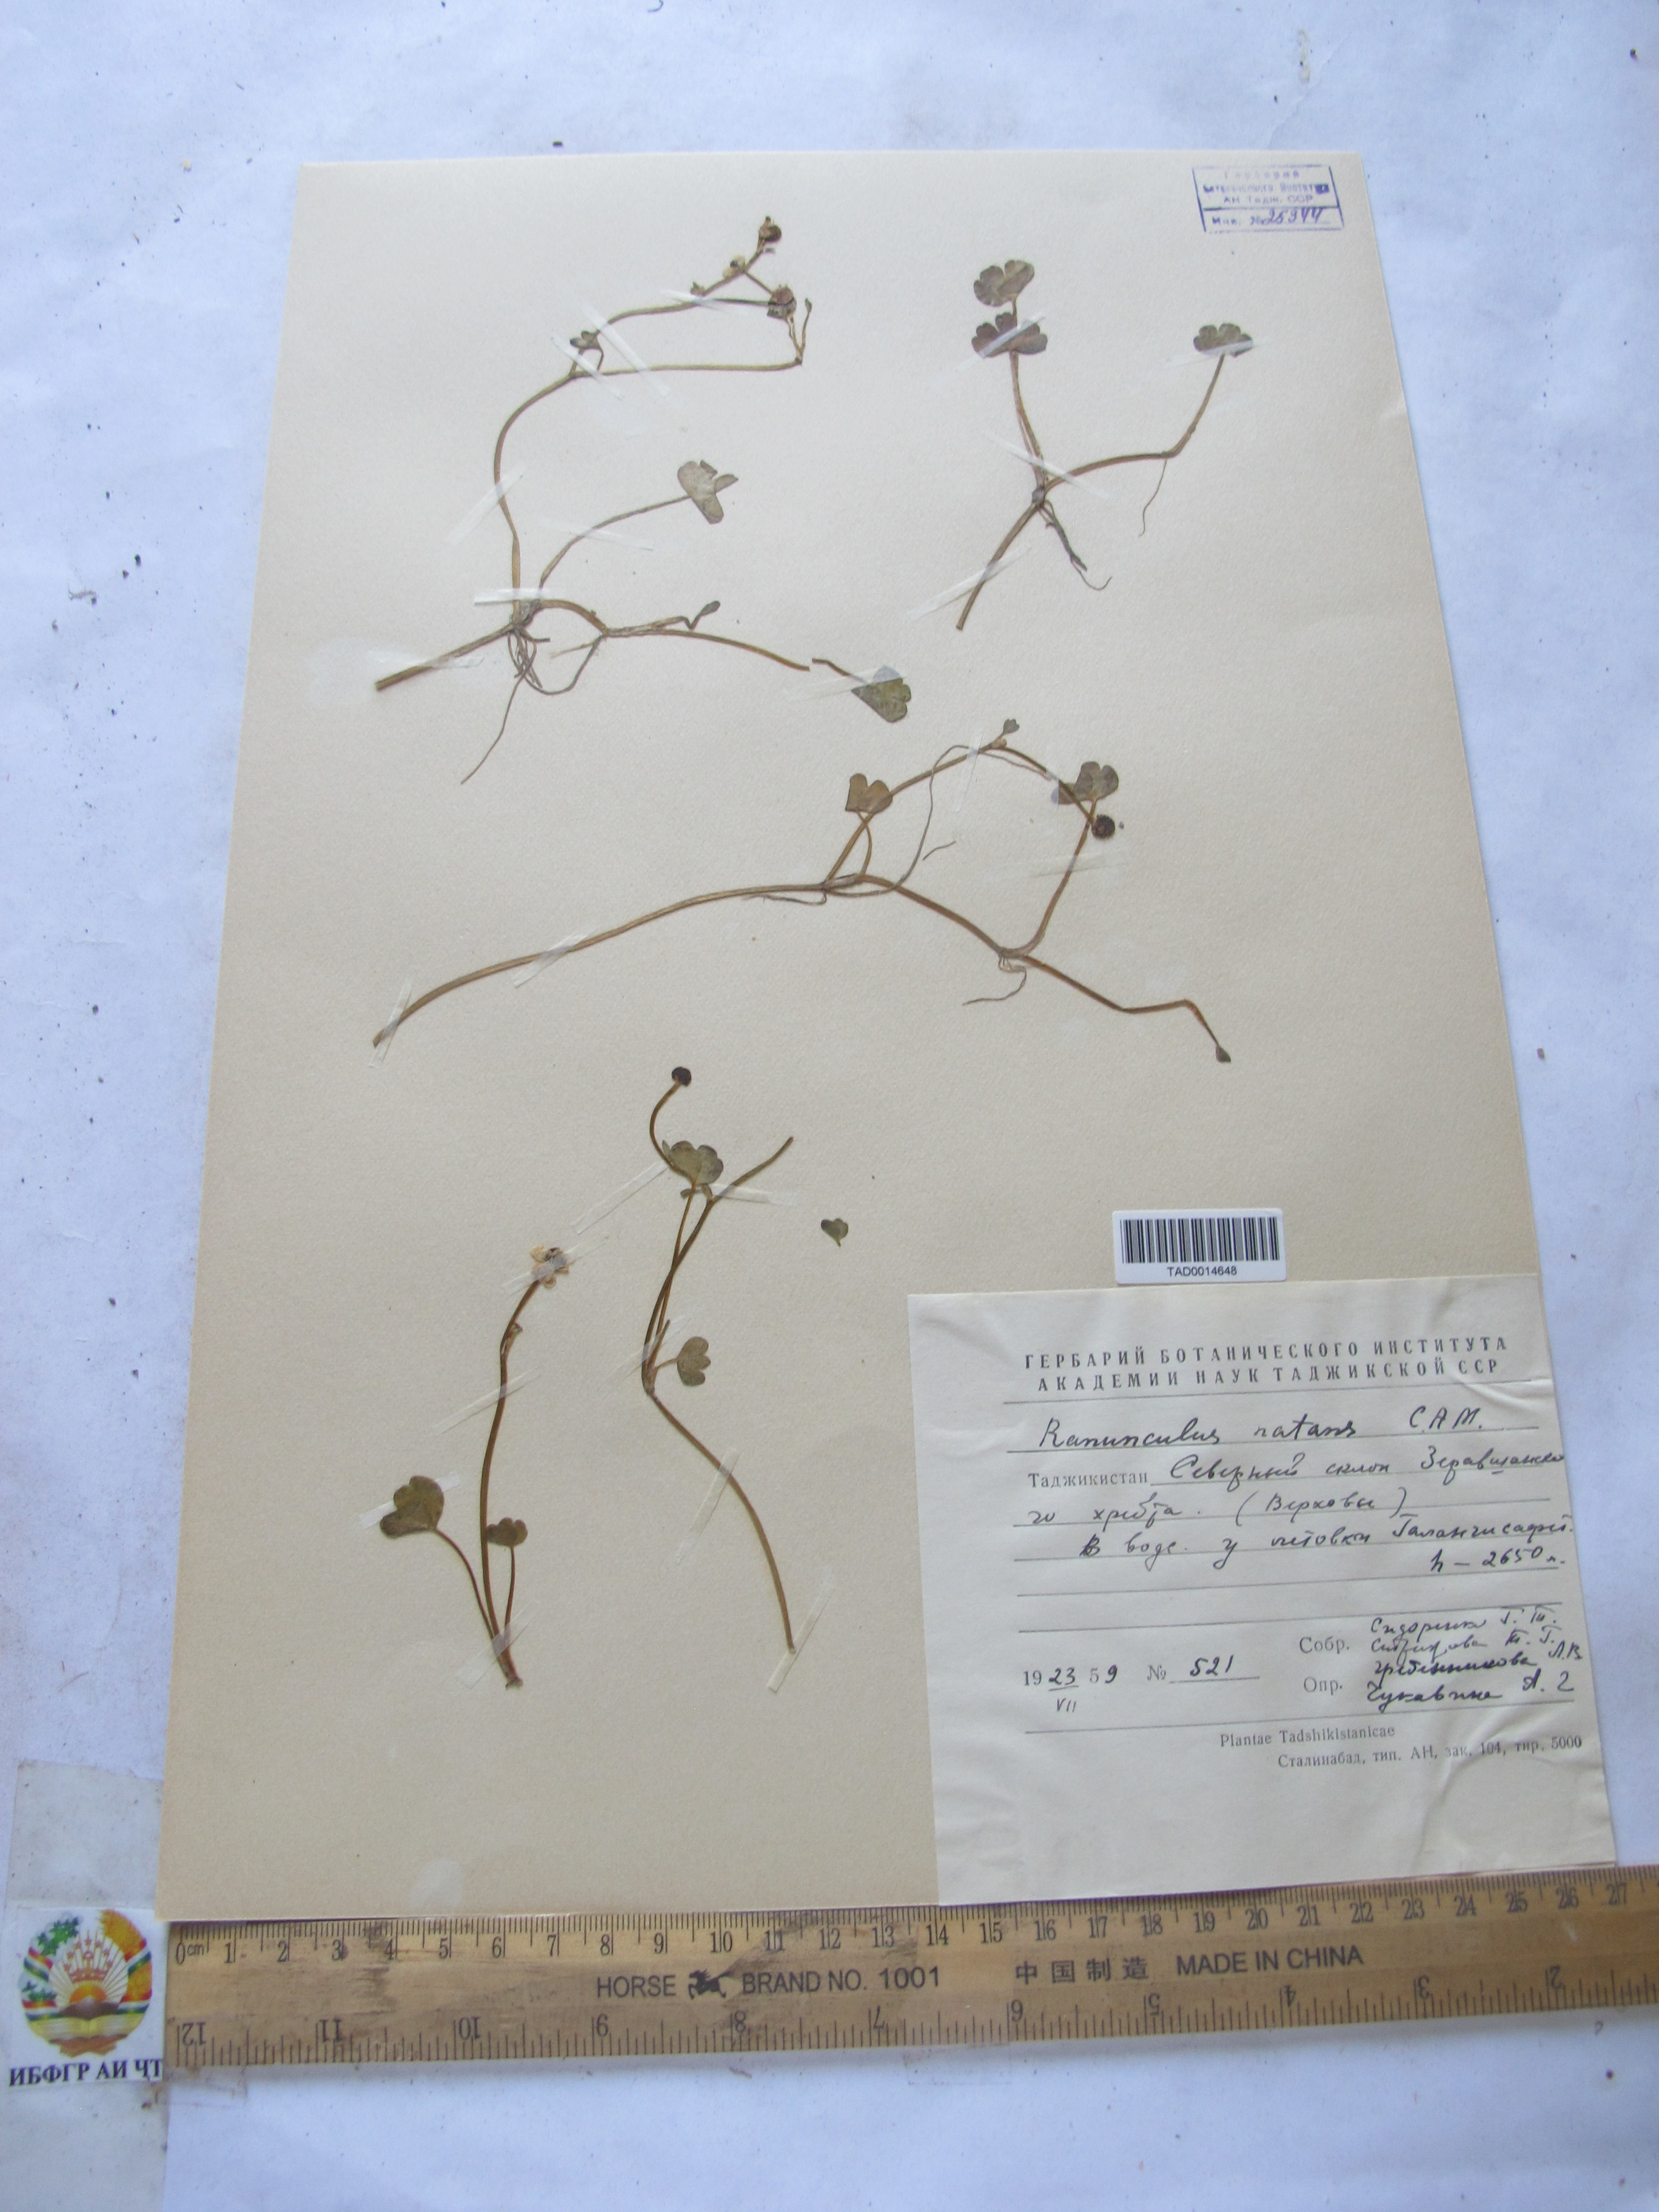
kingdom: Plantae
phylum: Tracheophyta
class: Magnoliopsida
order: Ranunculales
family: Ranunculaceae
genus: Ranunculus
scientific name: Ranunculus natans
